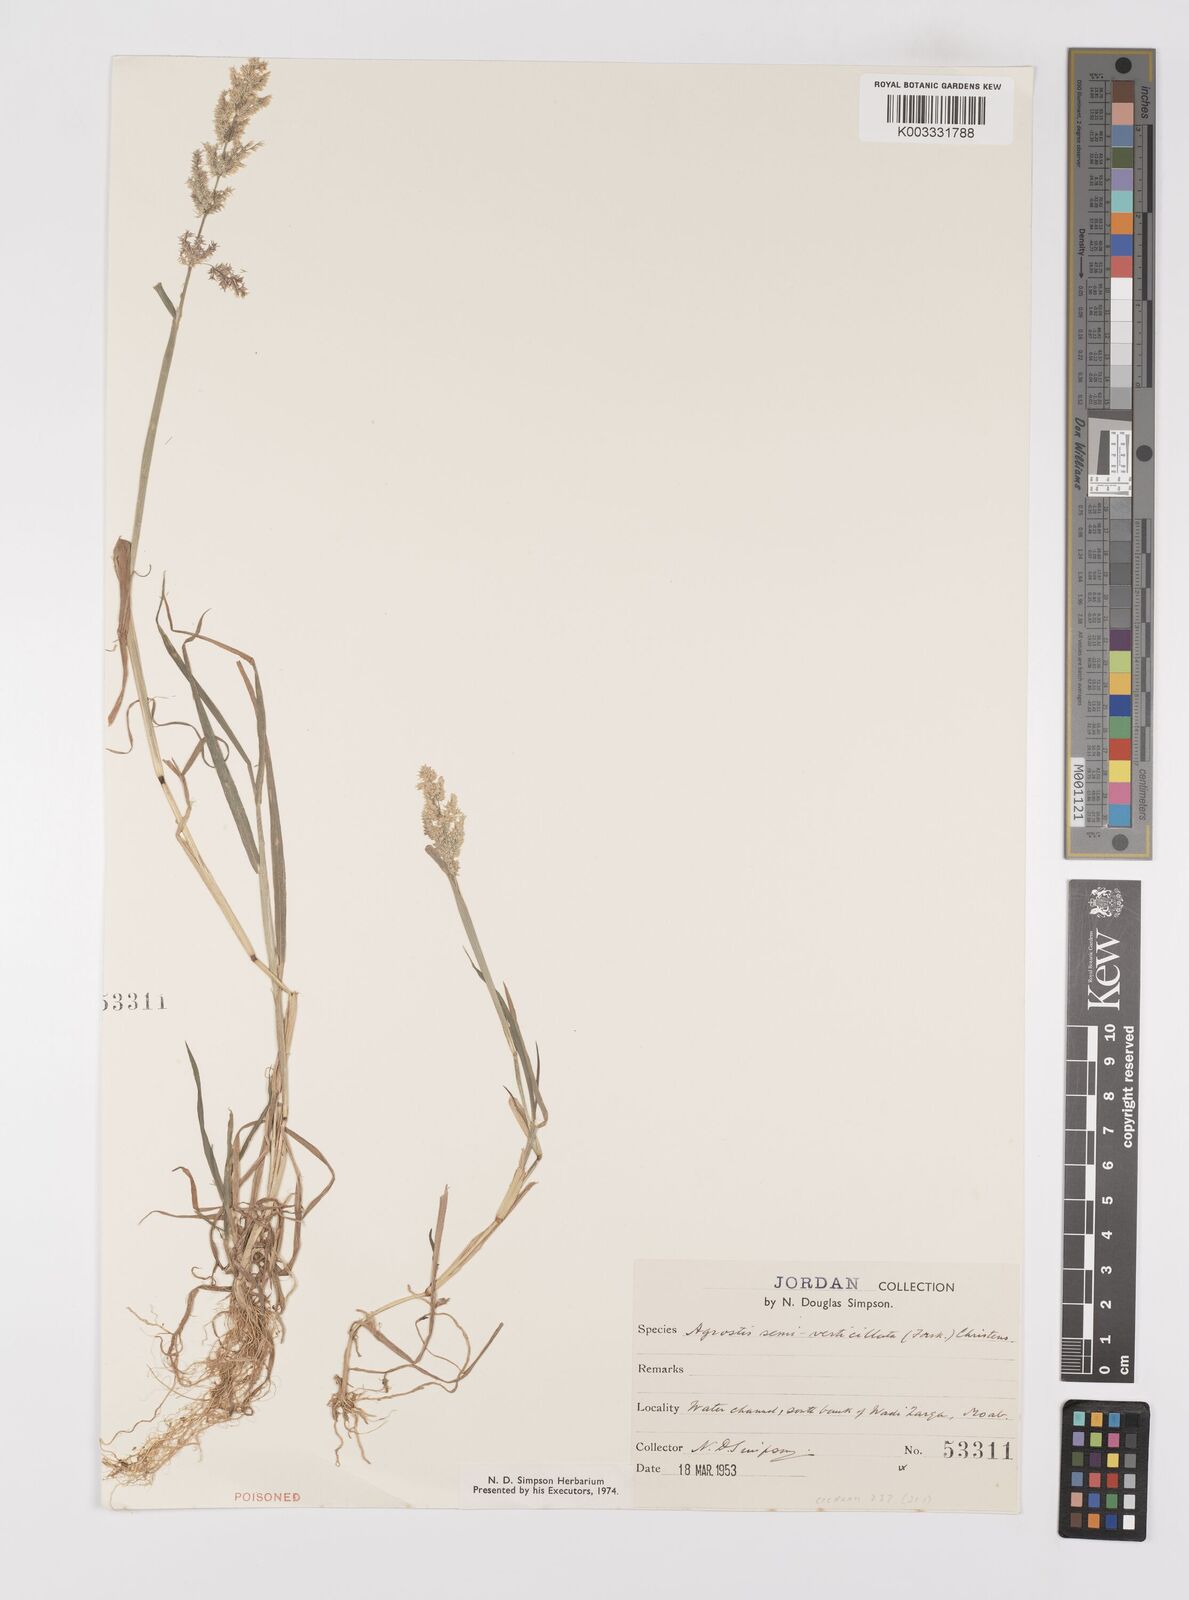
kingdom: Plantae
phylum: Tracheophyta
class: Liliopsida
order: Poales
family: Poaceae
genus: Polypogon
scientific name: Polypogon viridis
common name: Water bent
